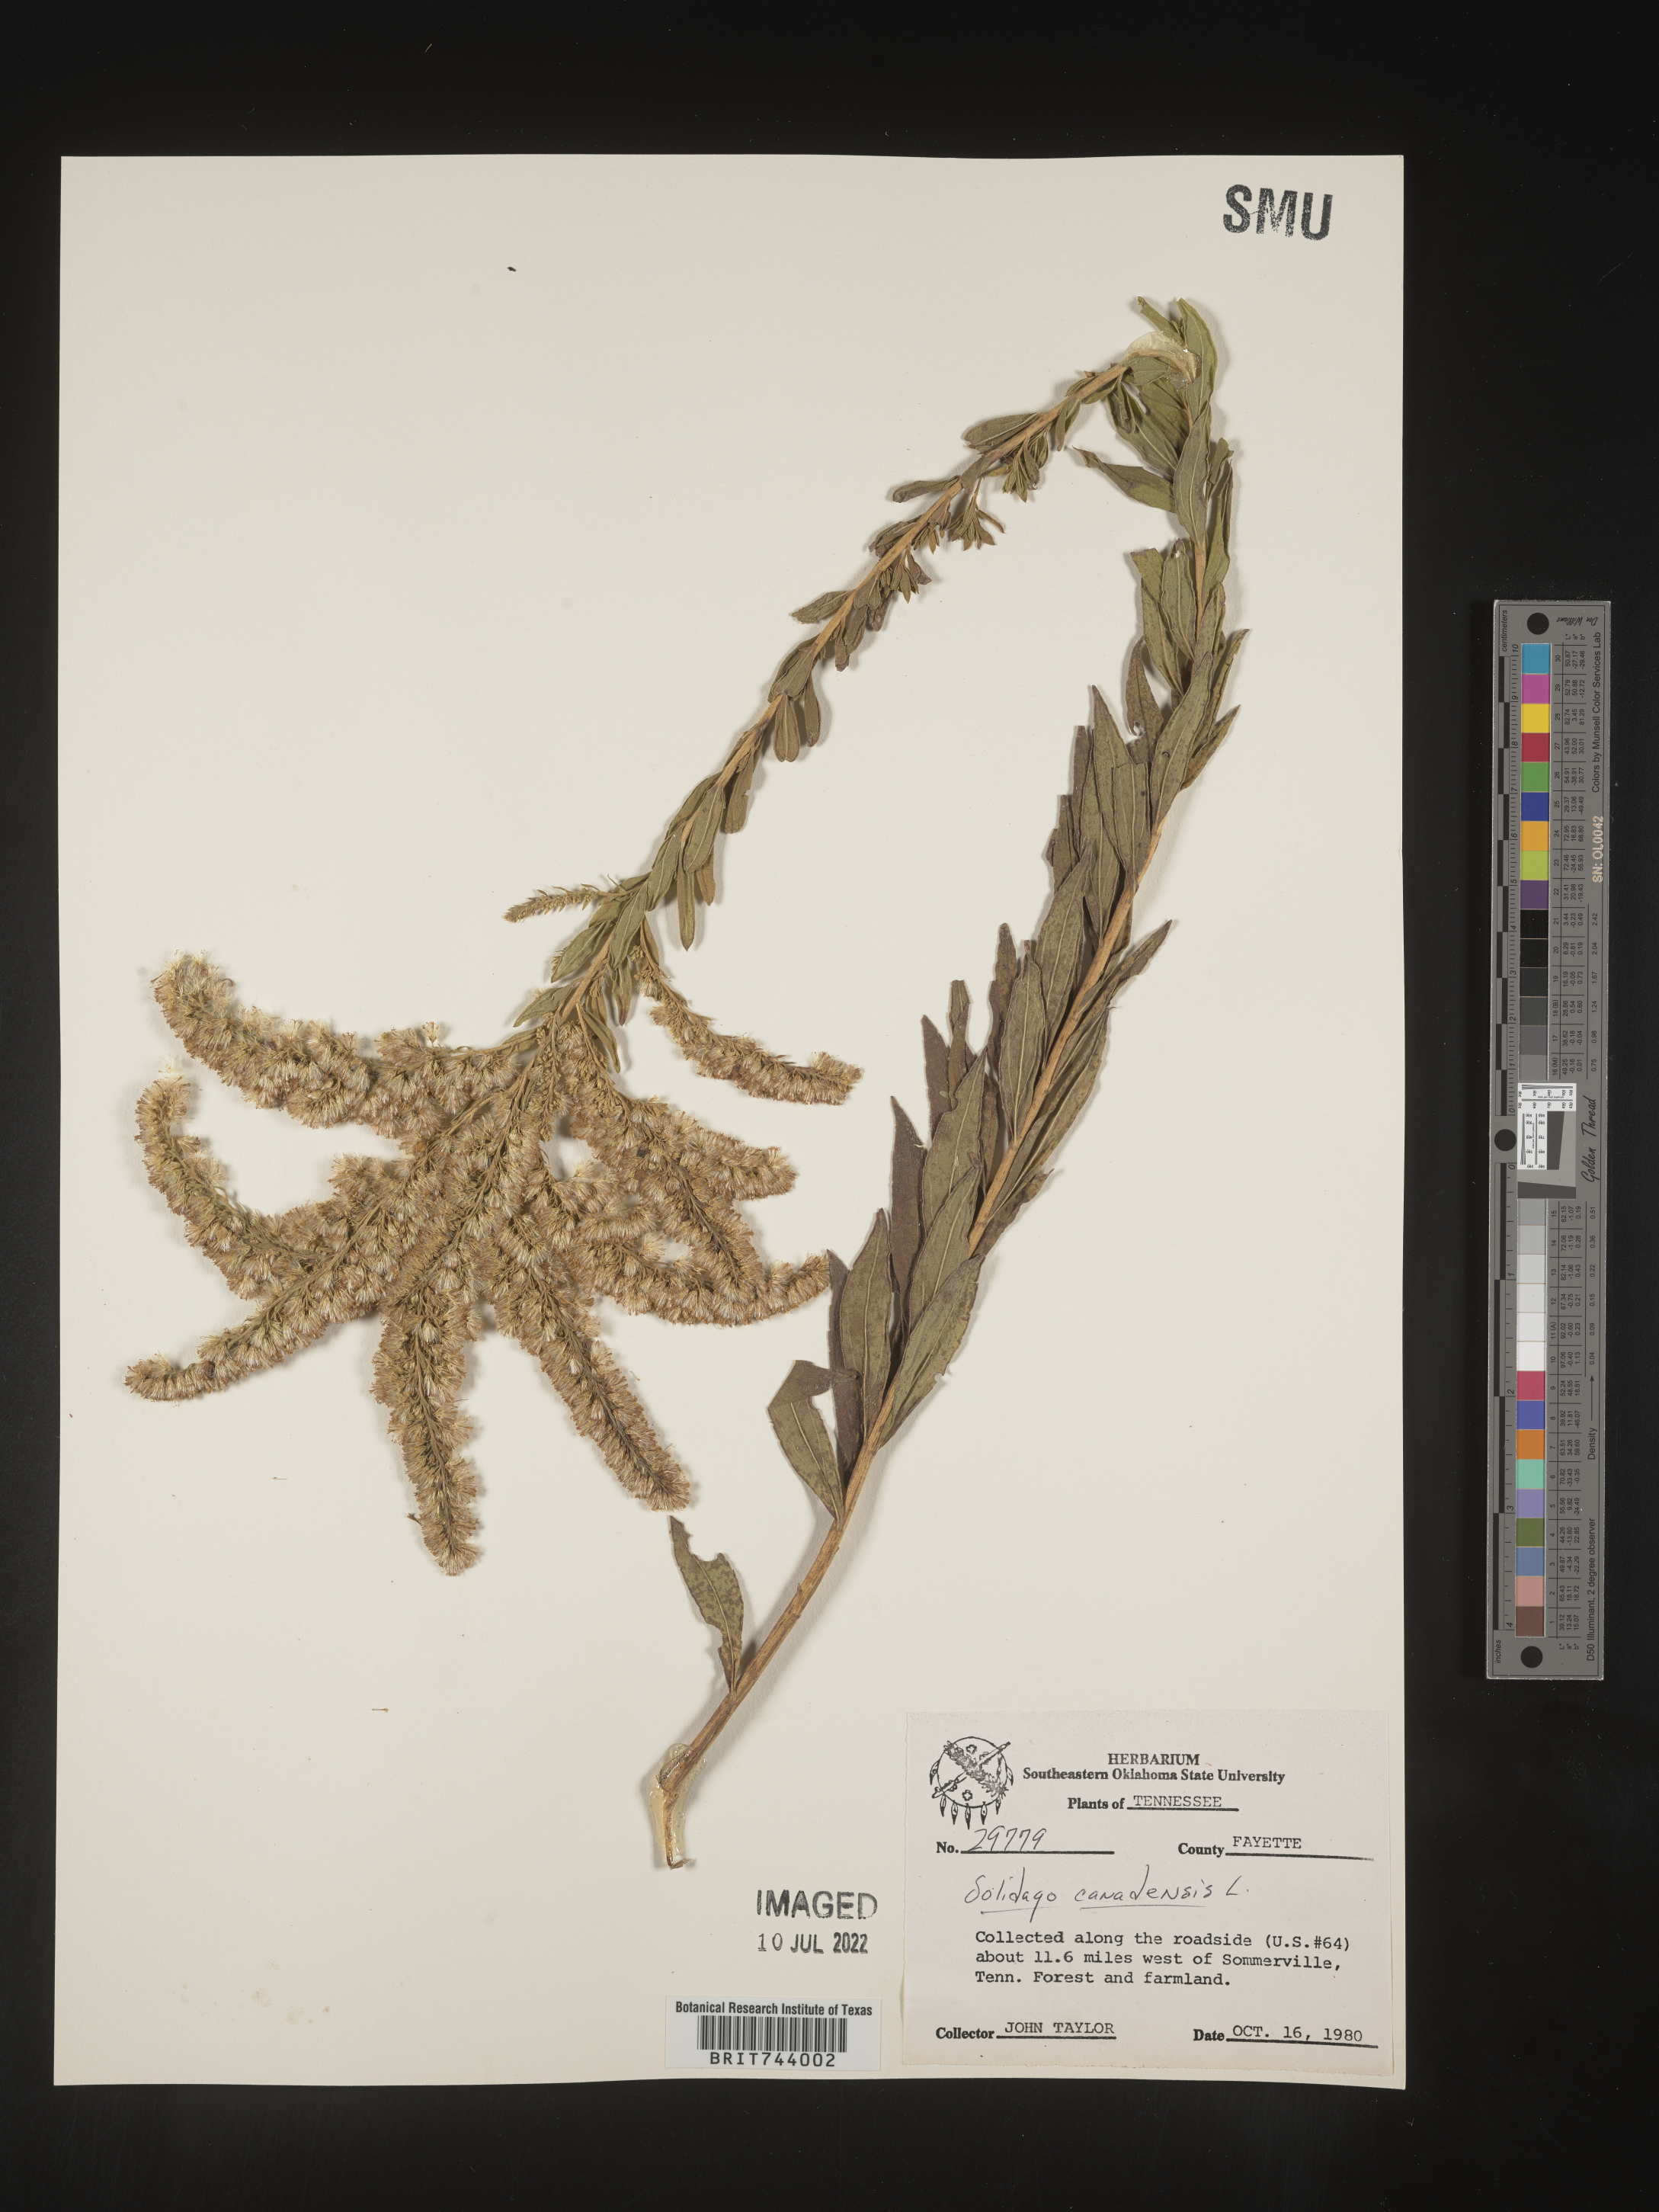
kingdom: Plantae
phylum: Tracheophyta
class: Magnoliopsida
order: Asterales
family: Asteraceae
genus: Solidago
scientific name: Solidago altissima
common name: Late goldenrod
